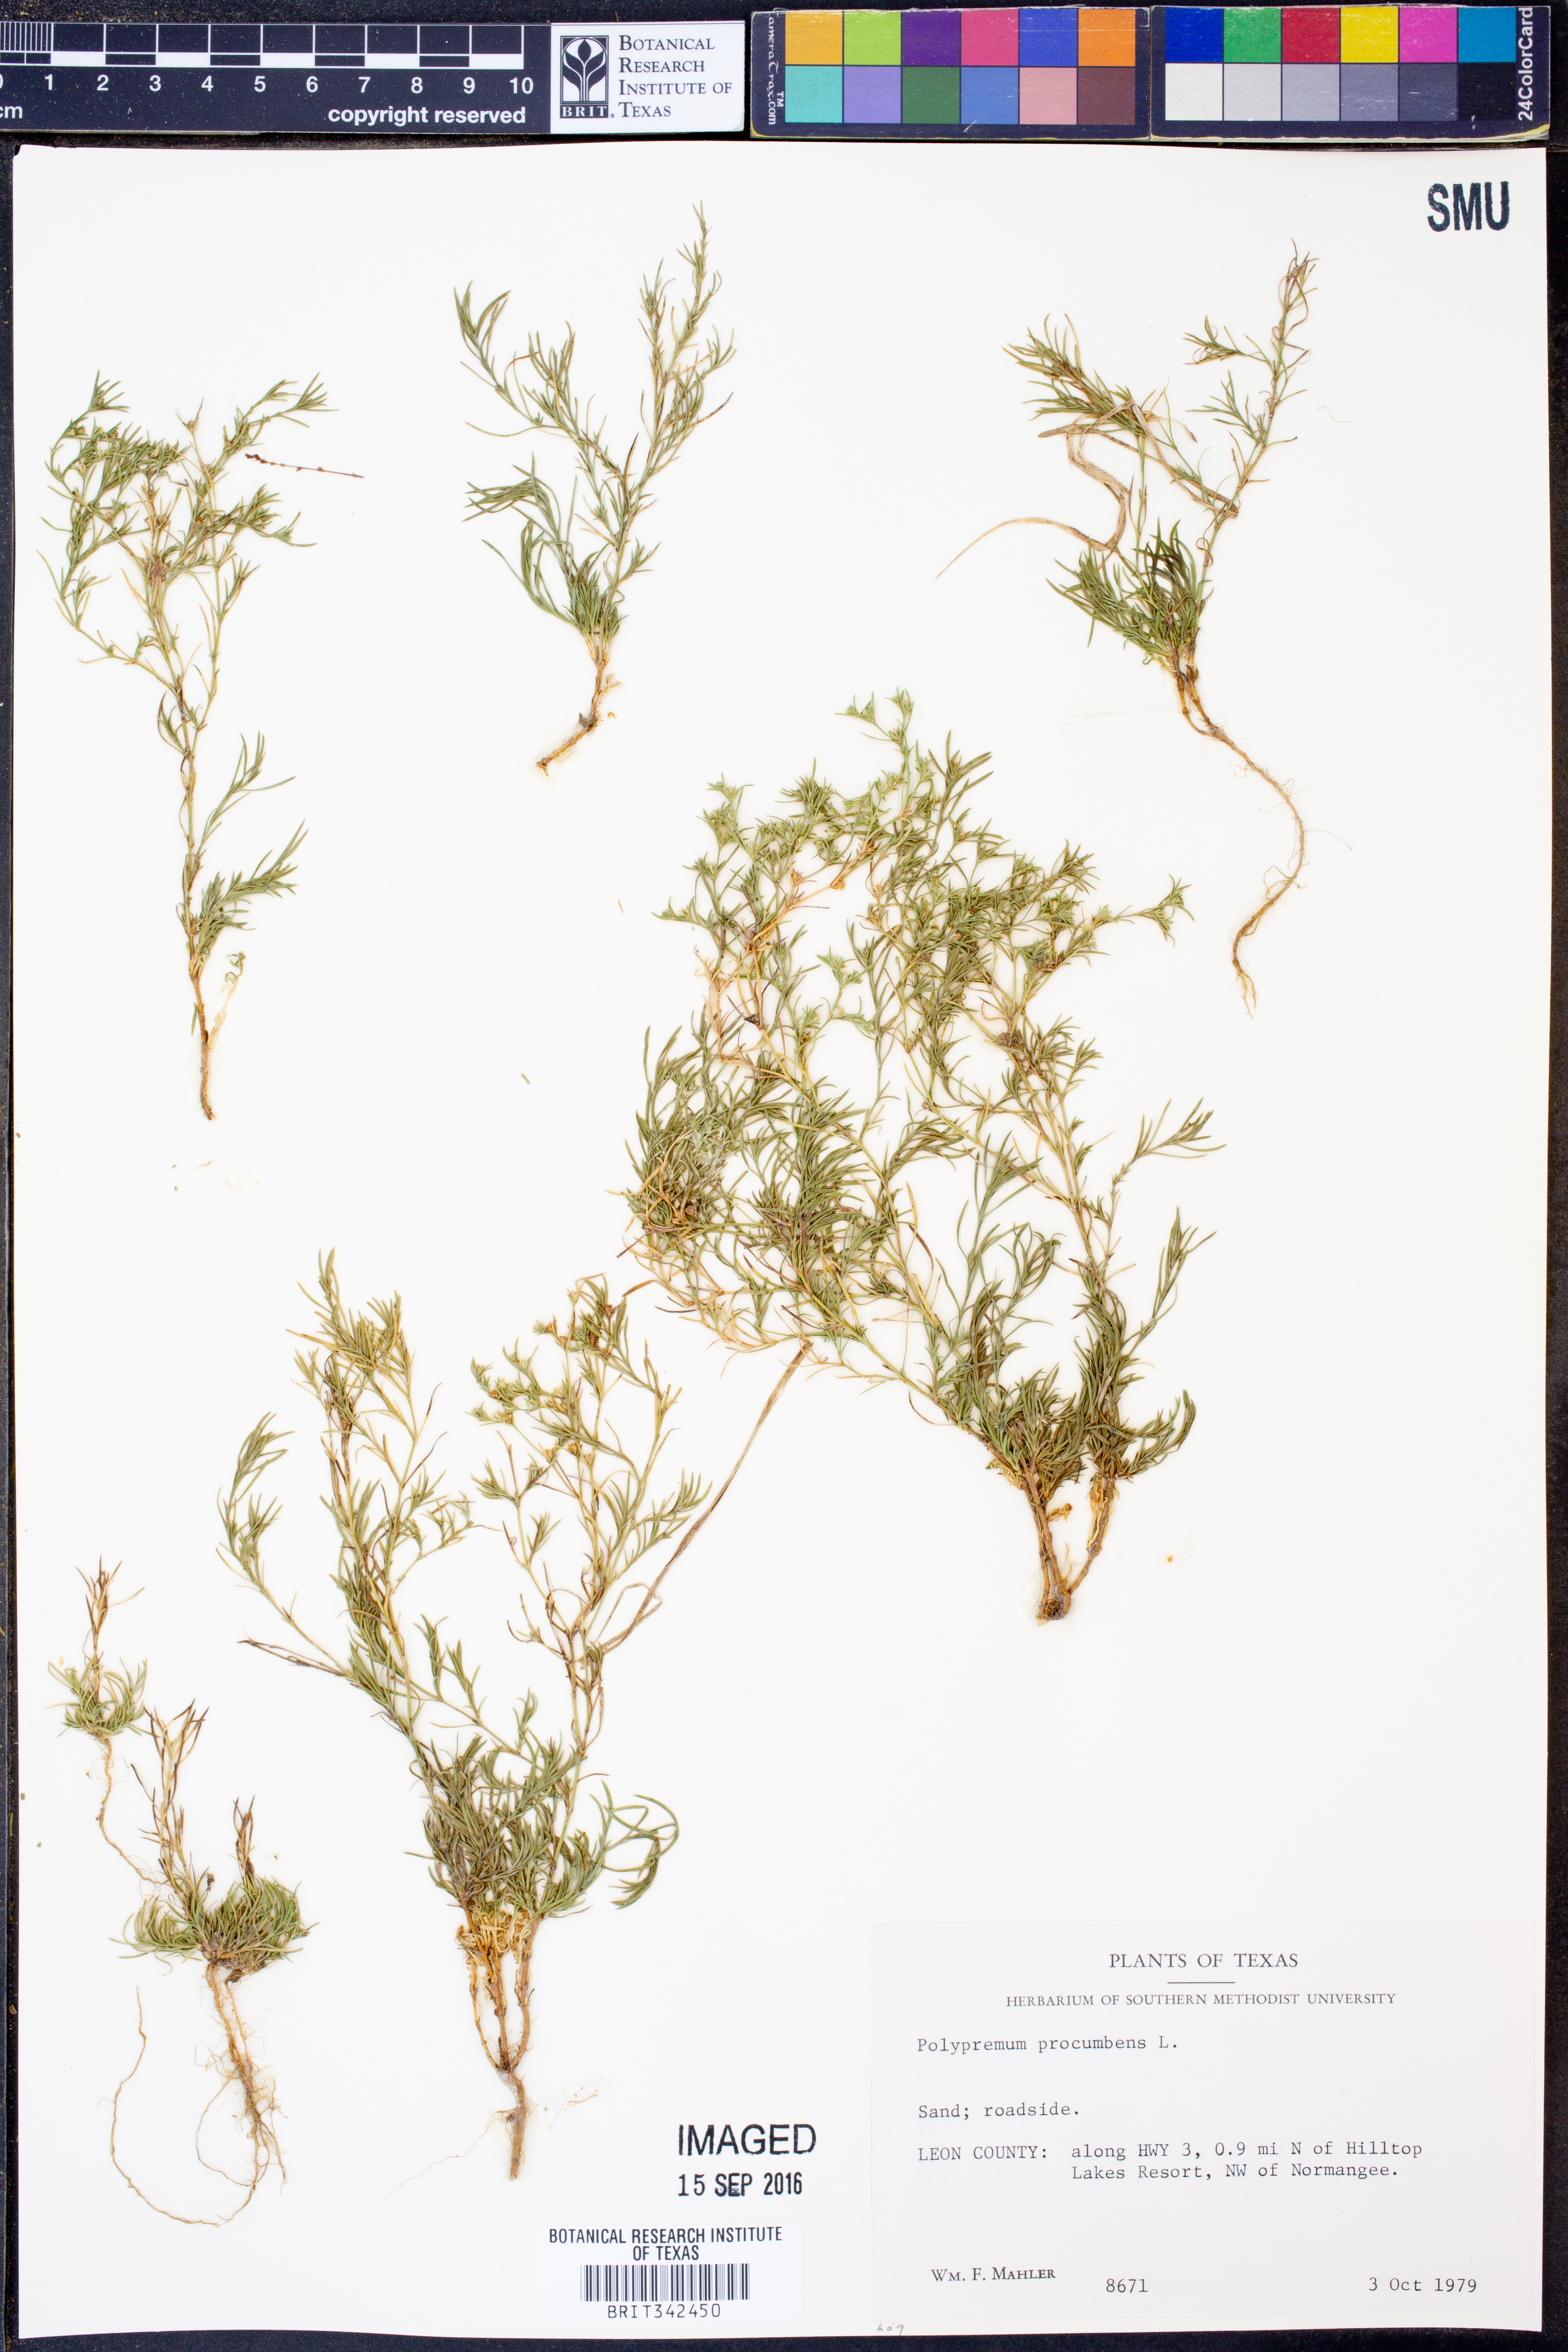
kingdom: Plantae
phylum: Tracheophyta
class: Magnoliopsida
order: Lamiales
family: Tetrachondraceae
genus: Polypremum
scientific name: Polypremum procumbens
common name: Juniper-leaf
